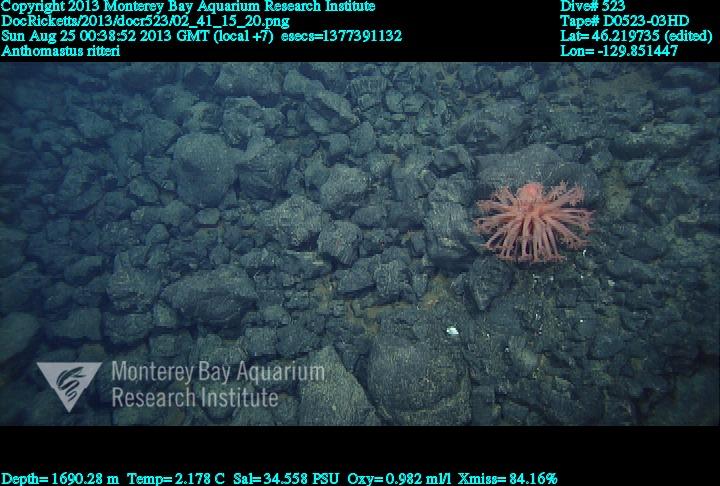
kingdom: Animalia
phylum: Cnidaria
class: Anthozoa
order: Scleralcyonacea
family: Coralliidae
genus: Heteropolypus
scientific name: Heteropolypus ritteri
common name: Ritter's soft coral
